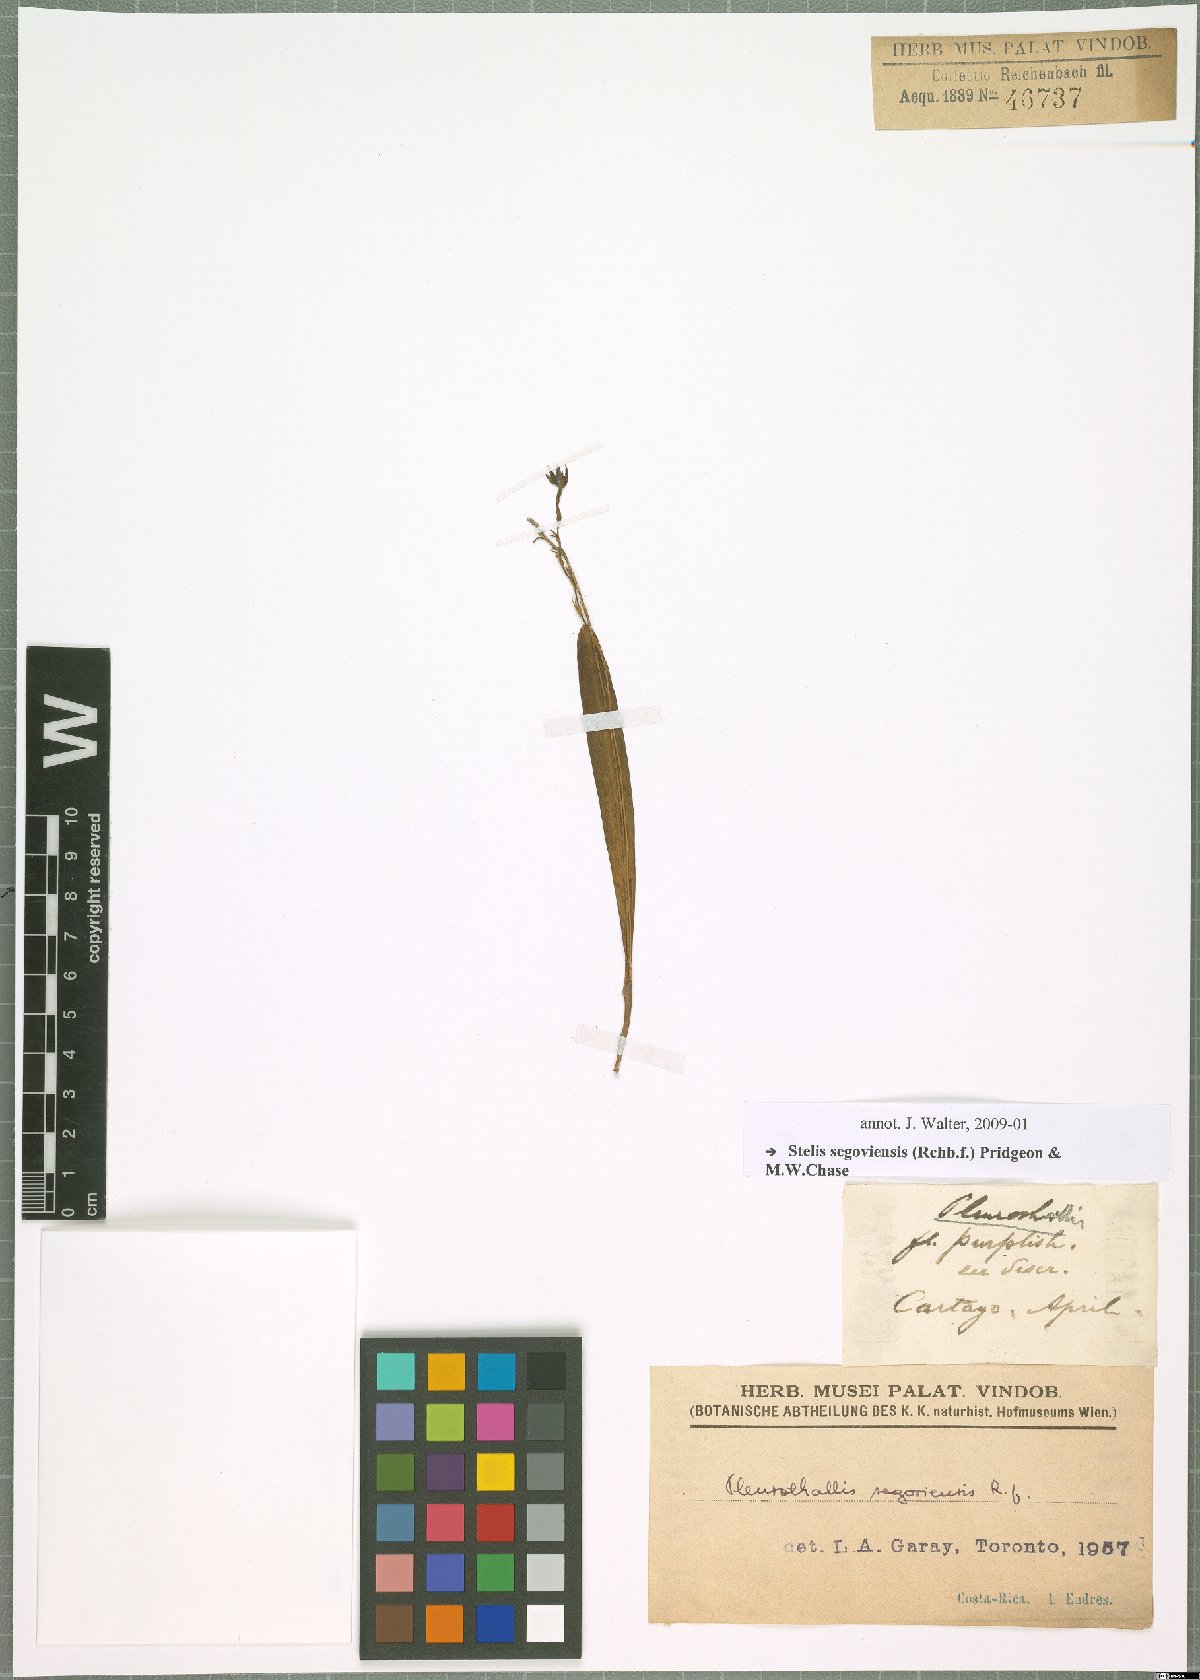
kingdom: Plantae
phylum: Tracheophyta
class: Liliopsida
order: Asparagales
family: Orchidaceae
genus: Stelis
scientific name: Stelis segoviensis
